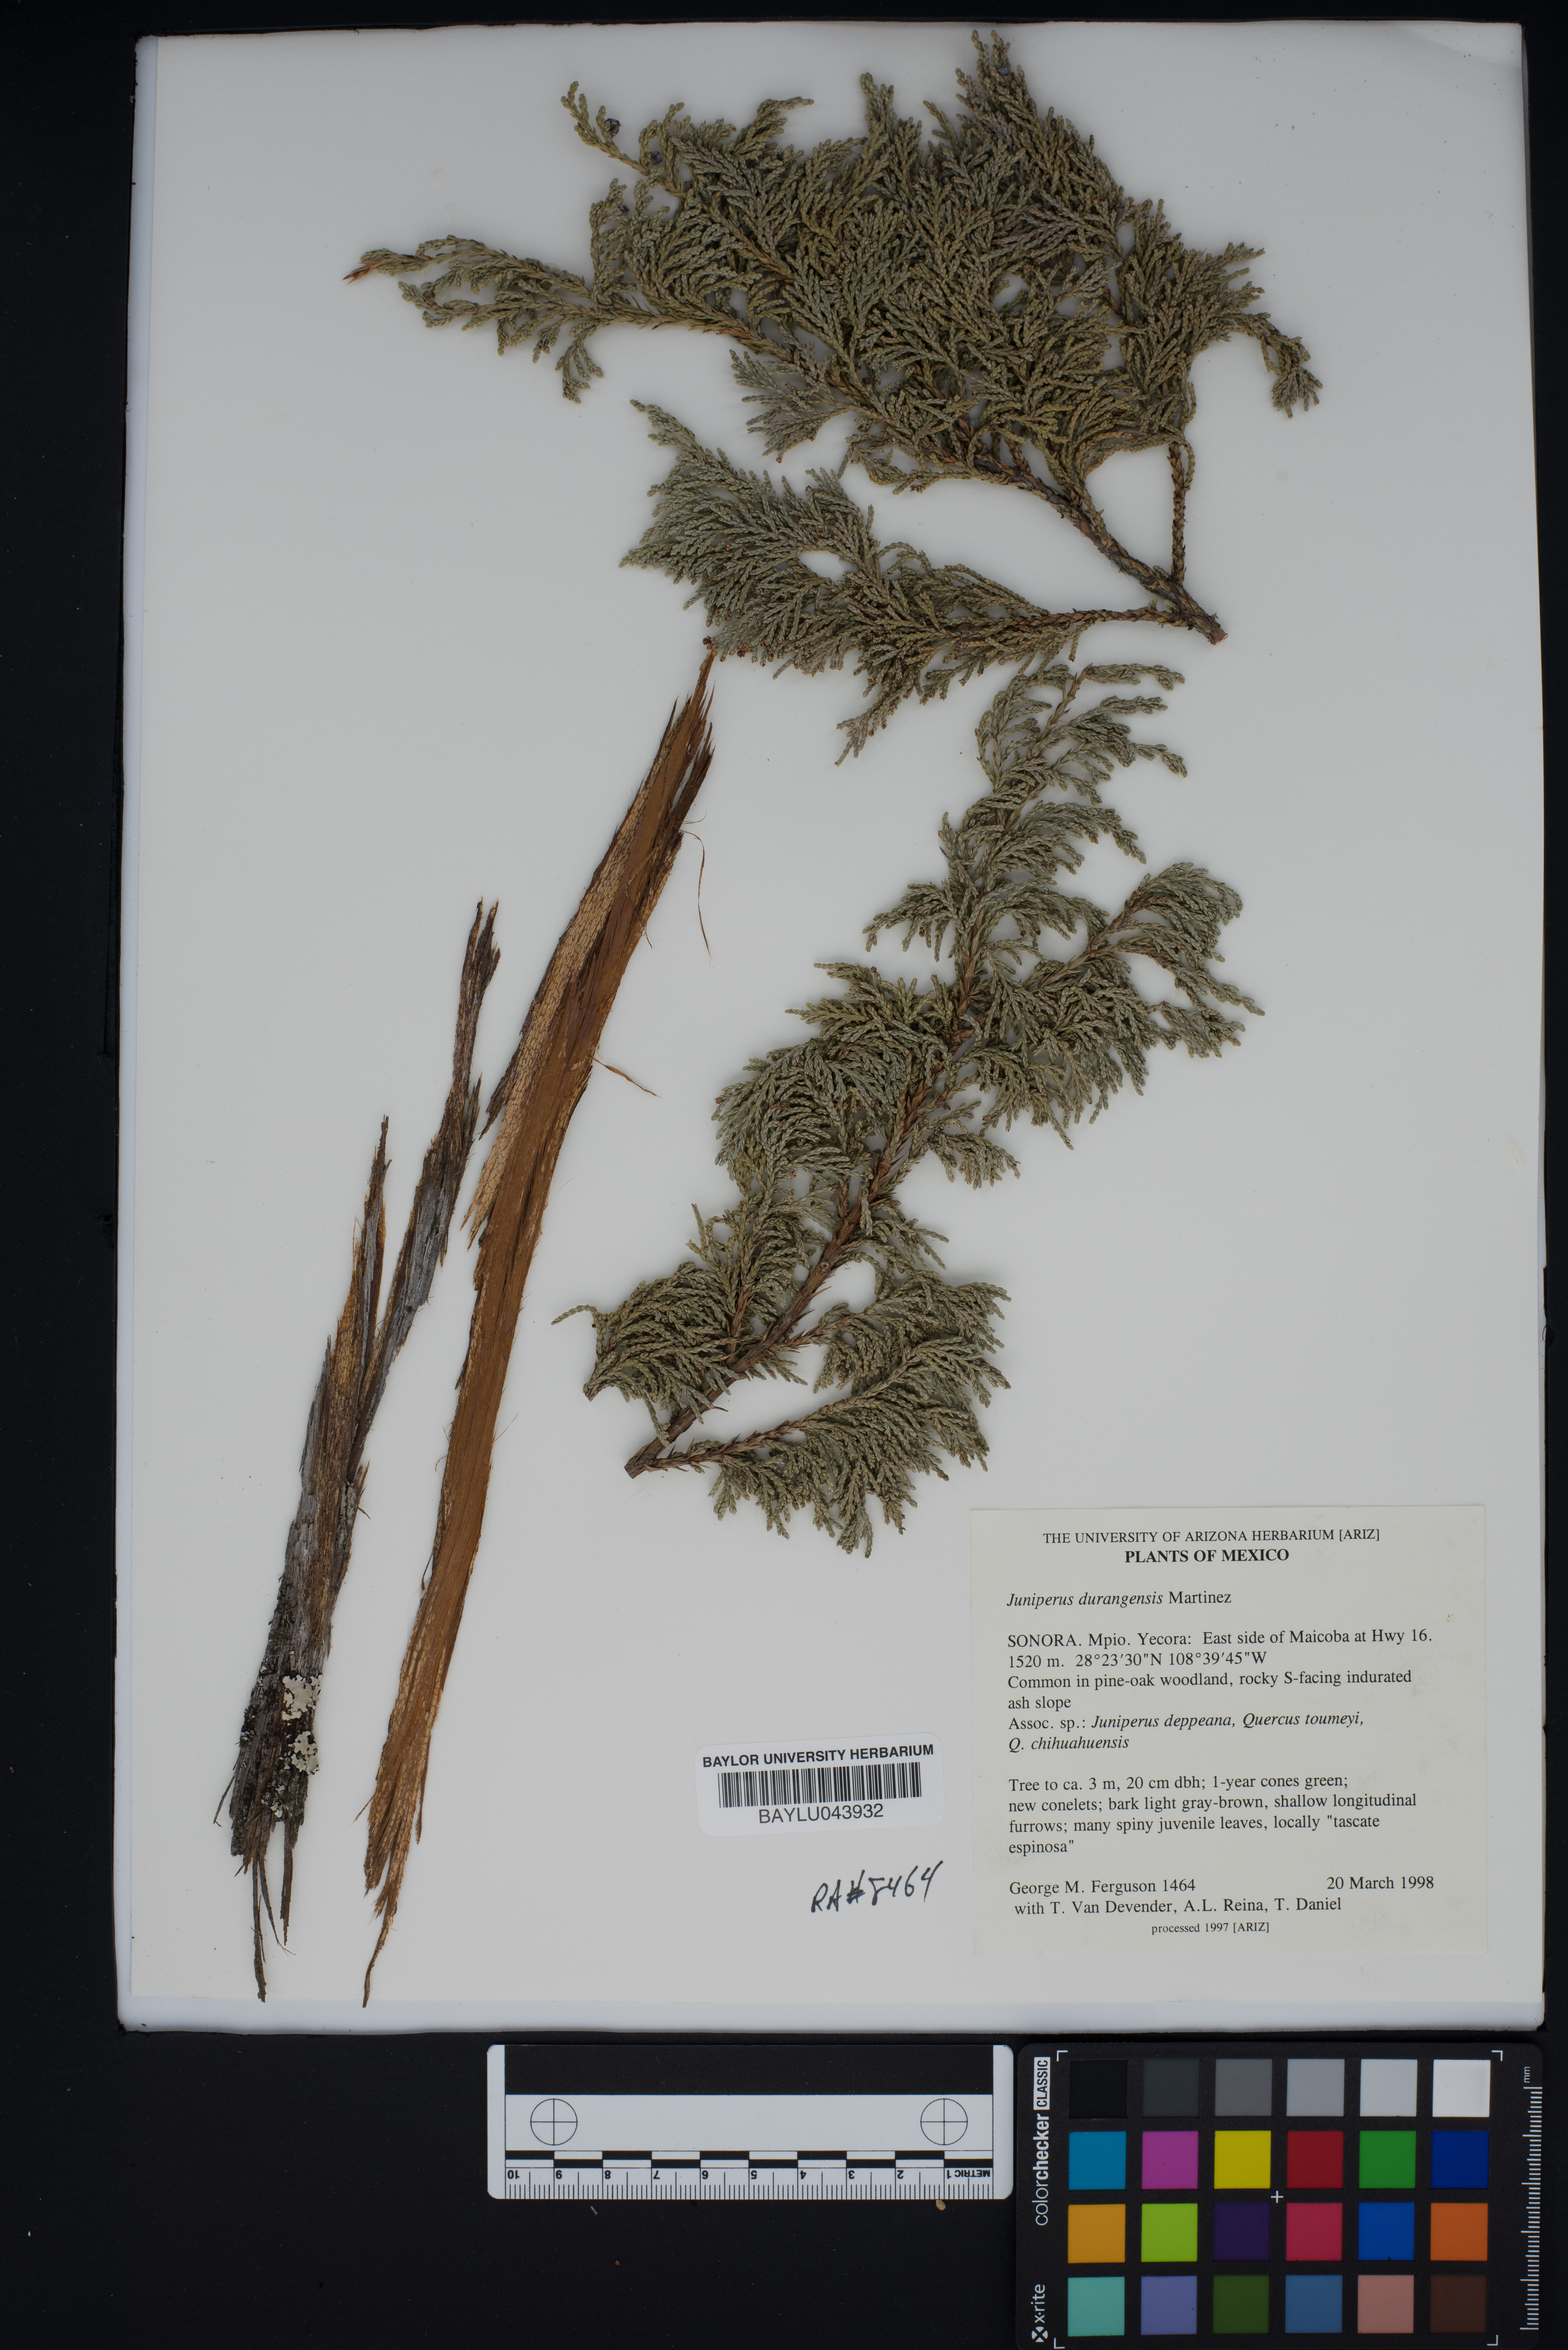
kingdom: Plantae
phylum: Tracheophyta
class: Pinopsida
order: Pinales
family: Cupressaceae
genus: Juniperus
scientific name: Juniperus durangensis
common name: Durango juniper
